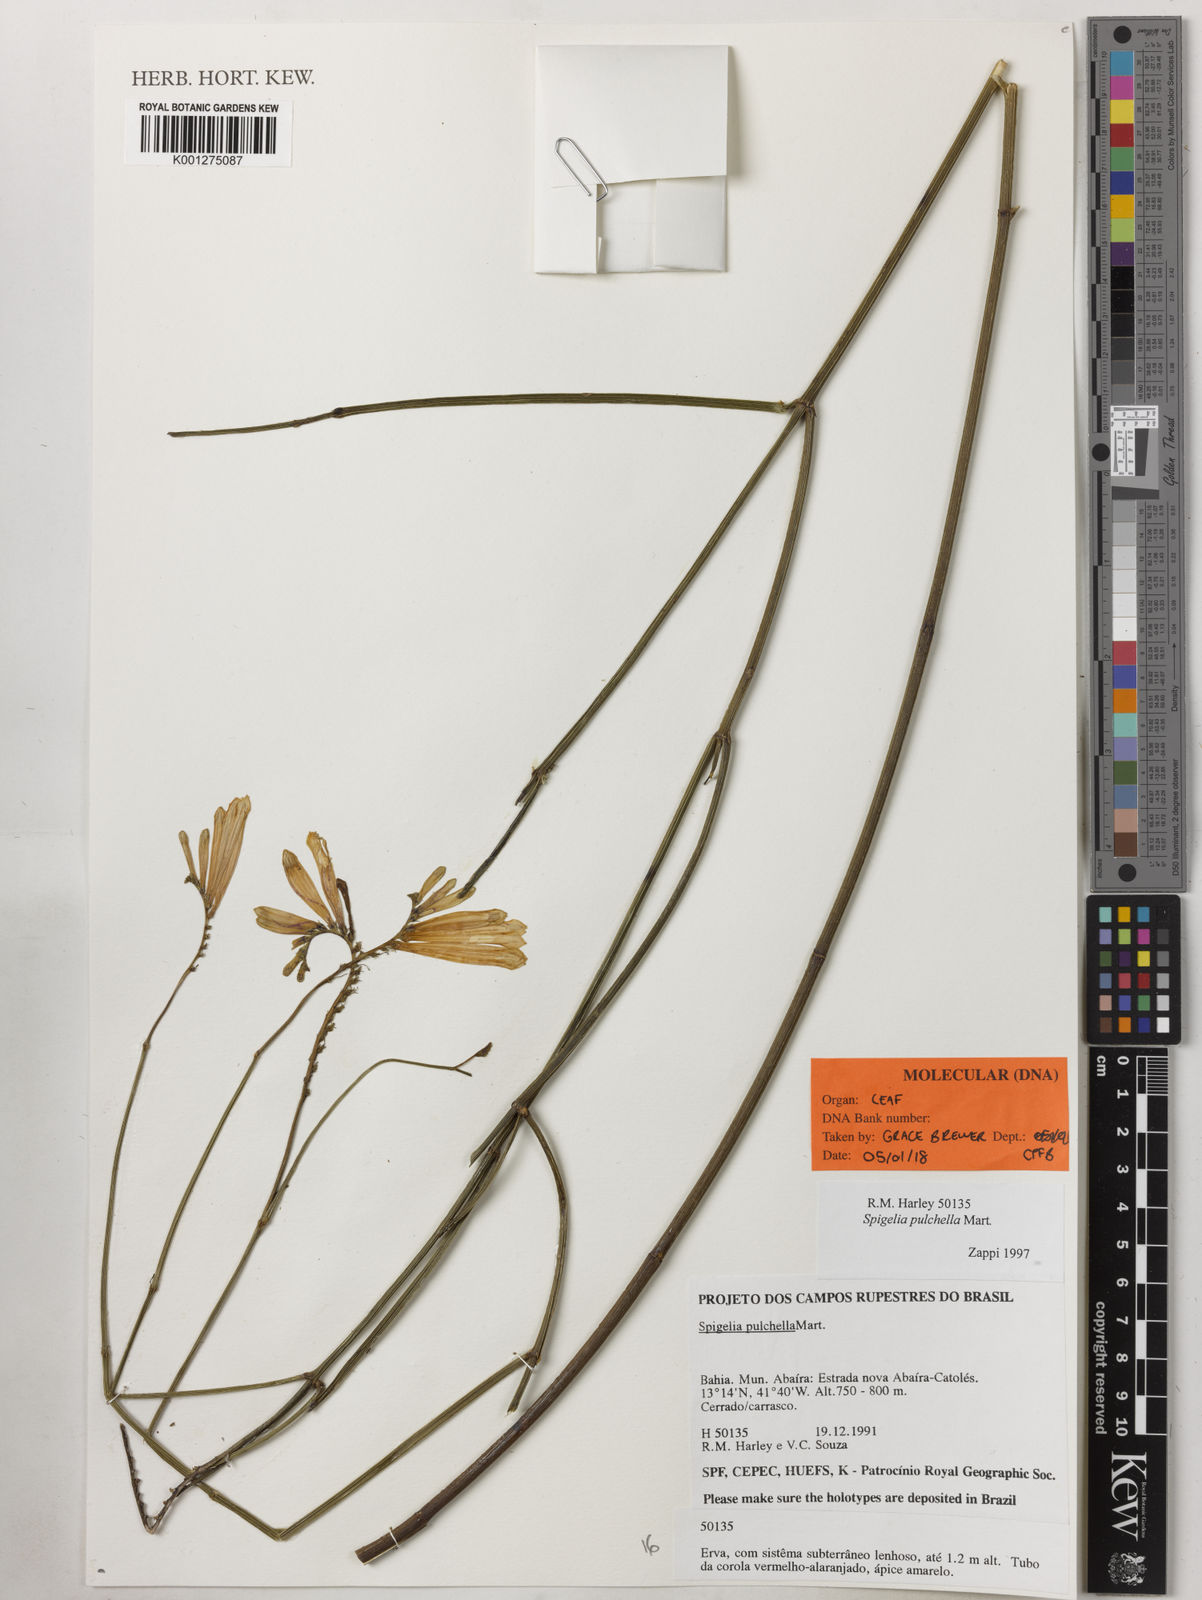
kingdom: Plantae
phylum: Tracheophyta
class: Magnoliopsida
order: Gentianales
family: Loganiaceae
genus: Spigelia
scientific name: Spigelia pulchella
